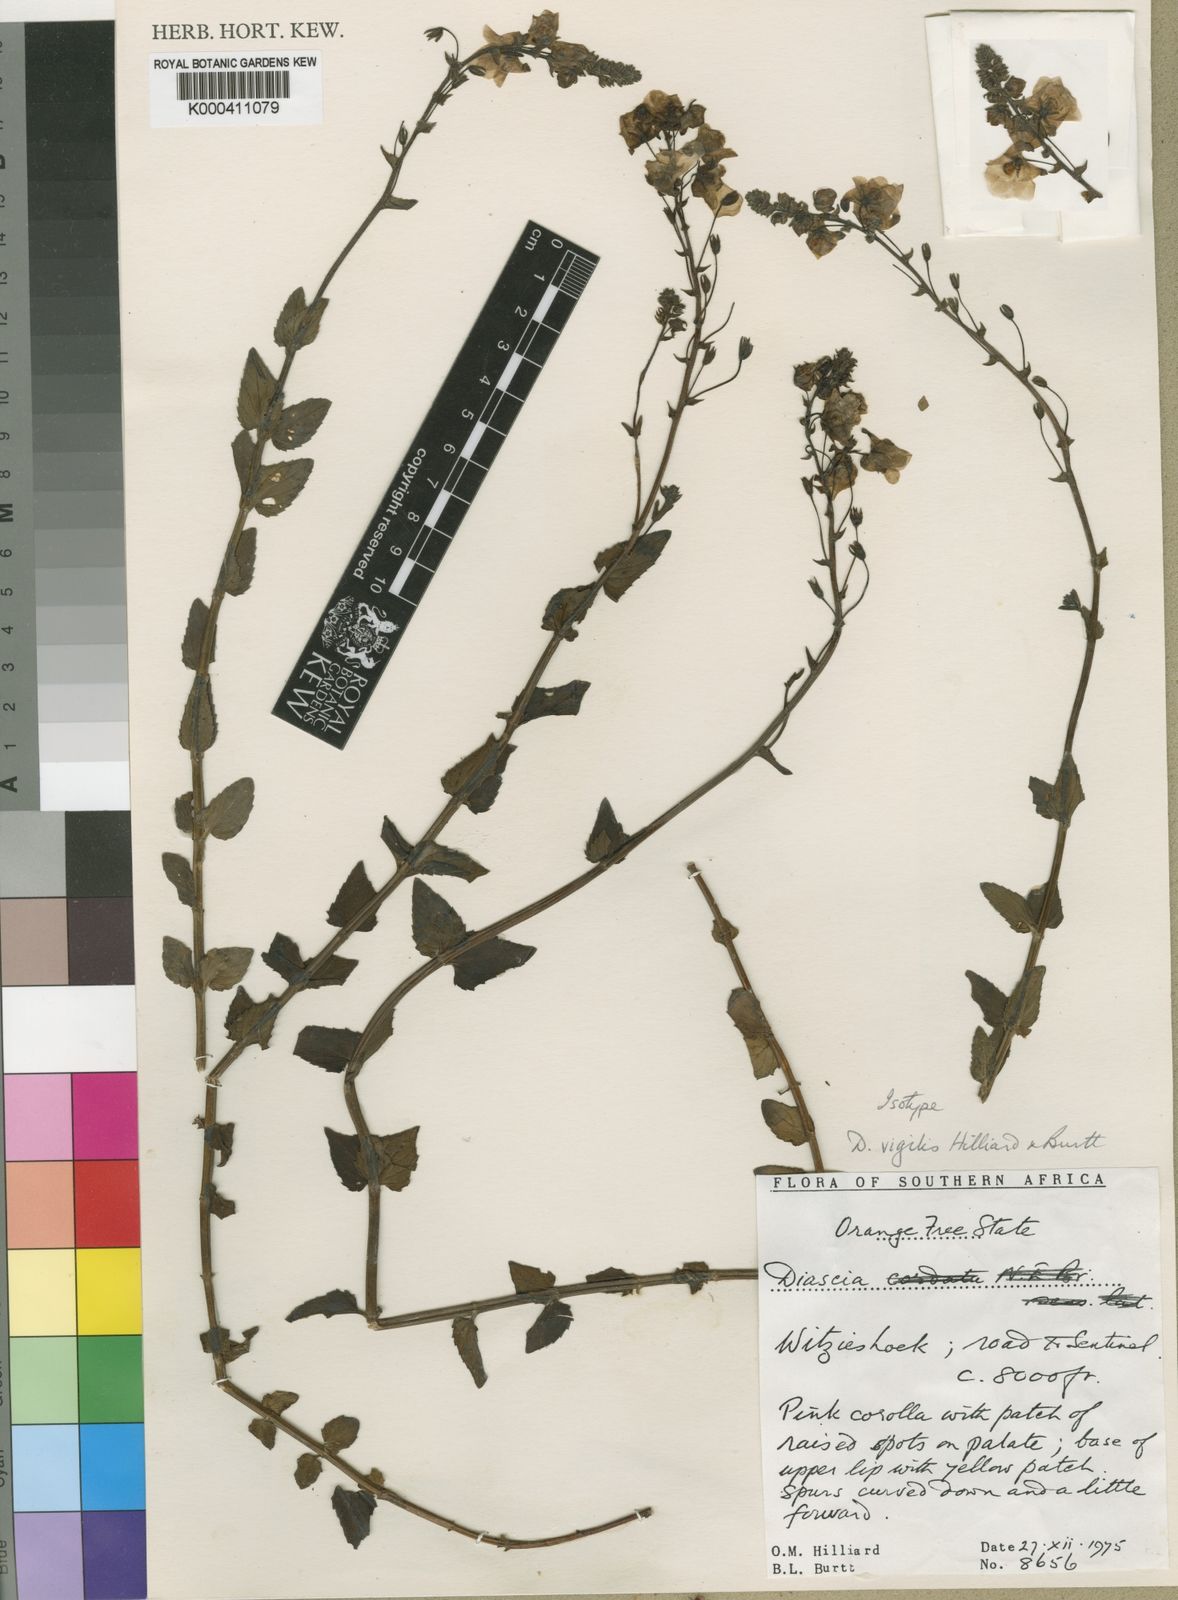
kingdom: Plantae
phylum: Tracheophyta
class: Magnoliopsida
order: Lamiales
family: Scrophulariaceae
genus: Diascia
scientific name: Diascia vigilis
